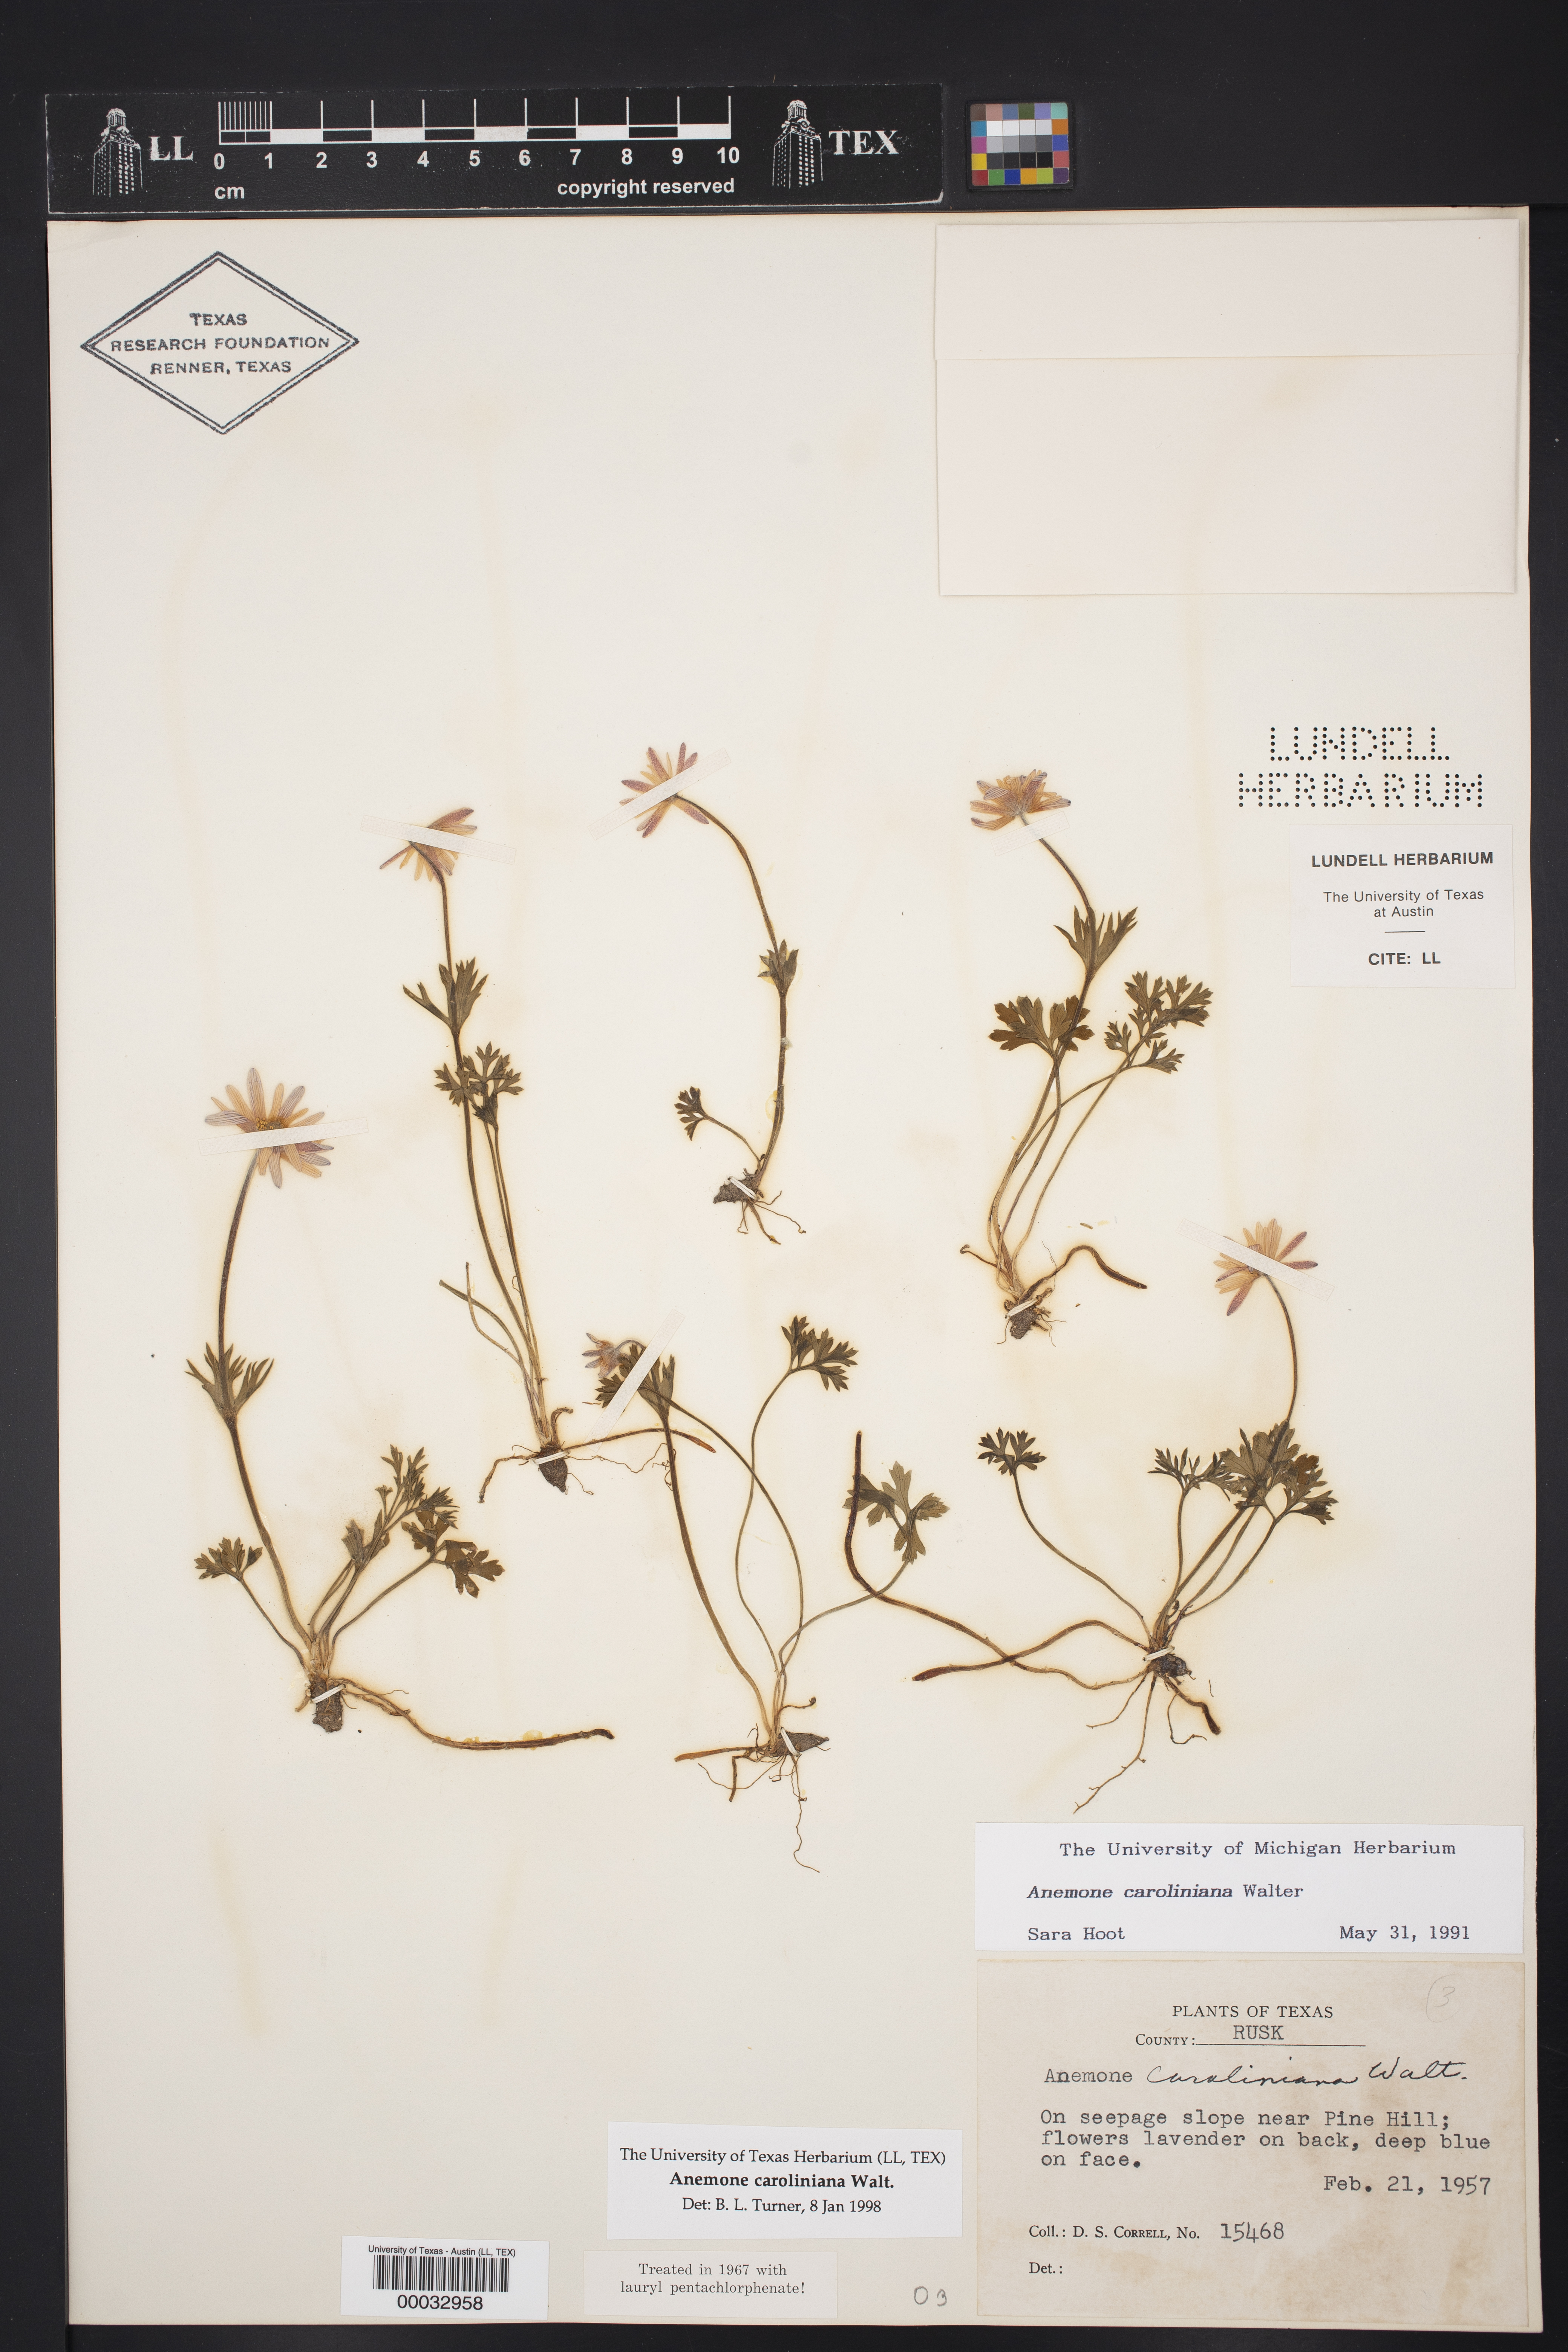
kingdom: Plantae
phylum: Tracheophyta
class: Magnoliopsida
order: Ranunculales
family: Ranunculaceae
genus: Anemone
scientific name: Anemone caroliniana
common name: Carolina anemone
